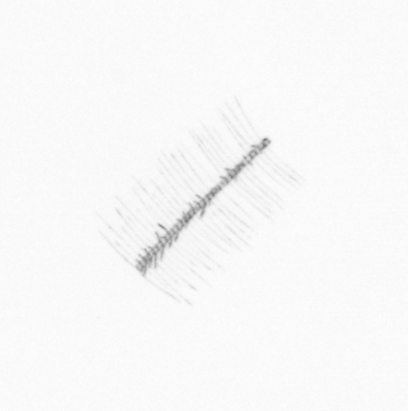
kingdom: Chromista
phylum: Ochrophyta
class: Bacillariophyceae
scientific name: Bacillariophyceae
